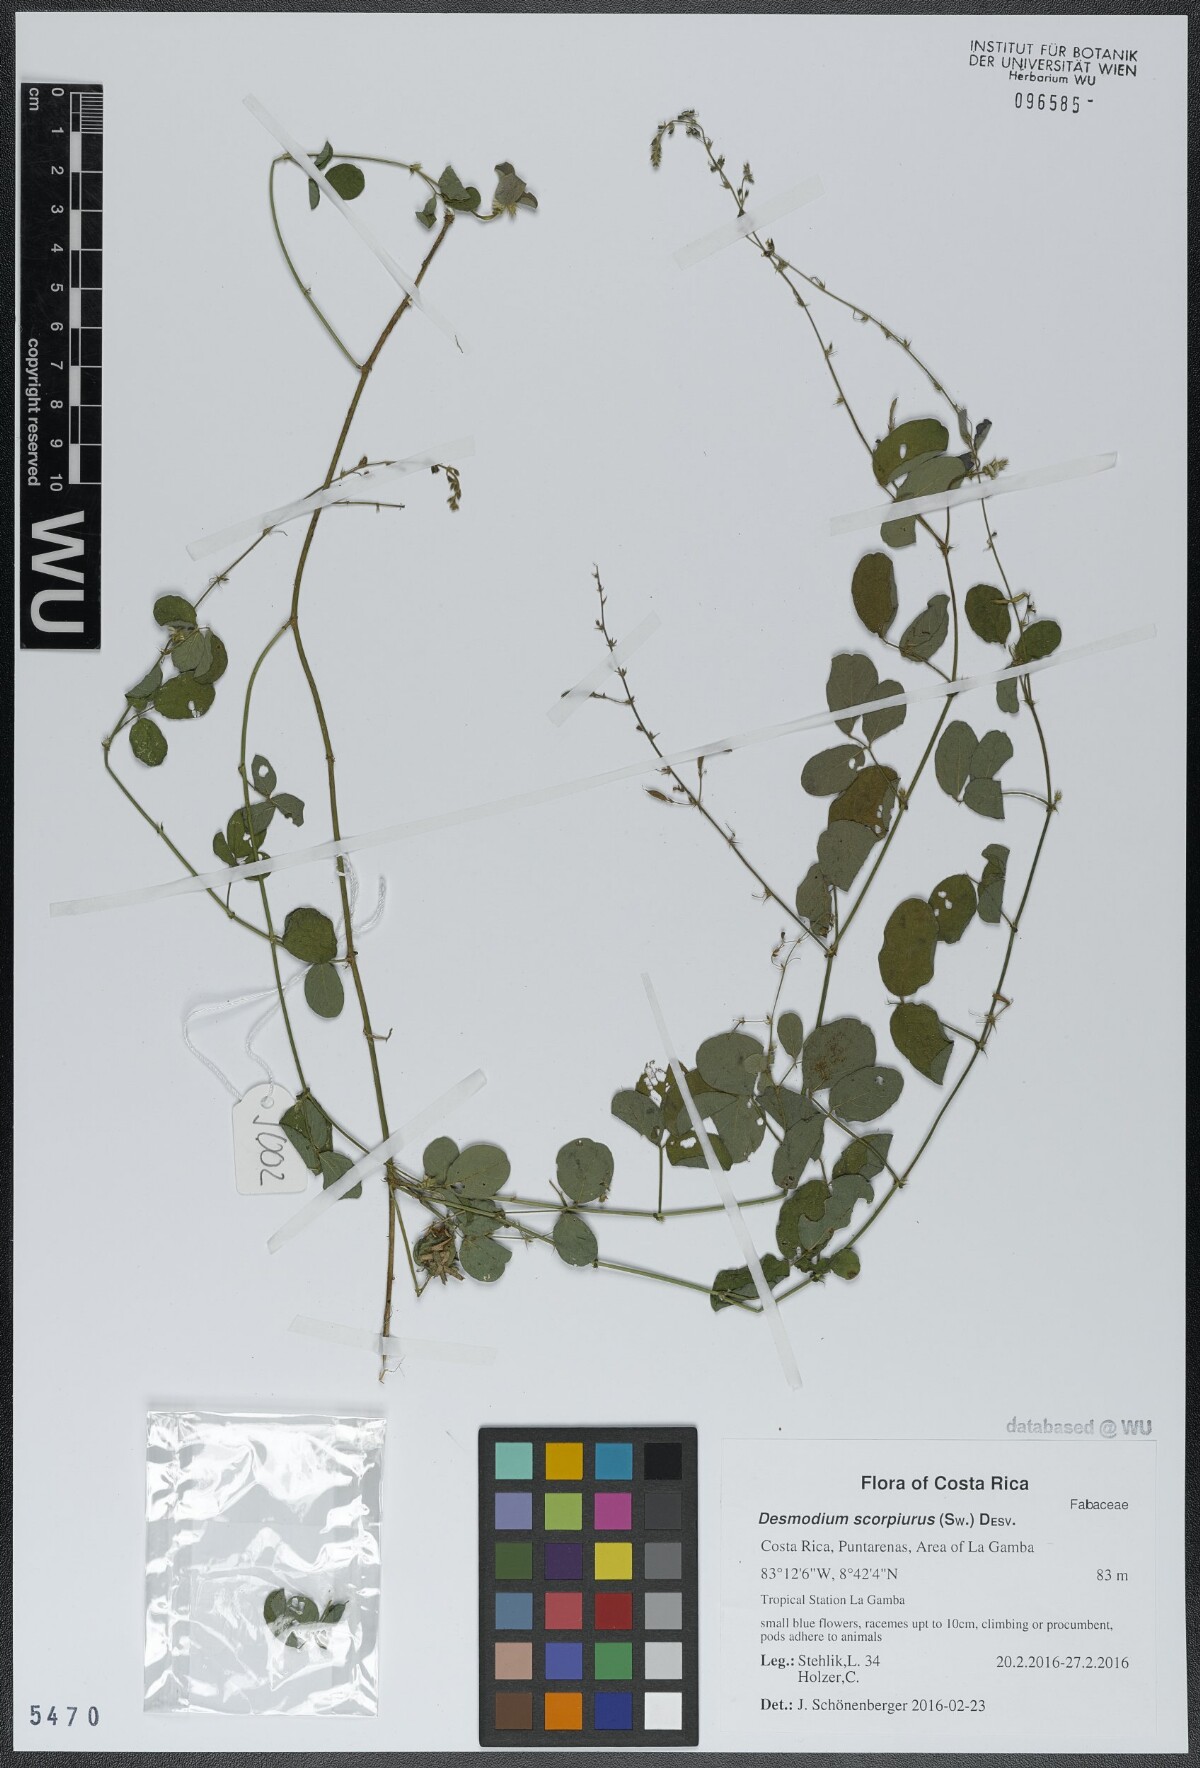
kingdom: Plantae
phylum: Tracheophyta
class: Magnoliopsida
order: Fabales
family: Fabaceae
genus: Desmodium
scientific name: Desmodium scorpiurus
